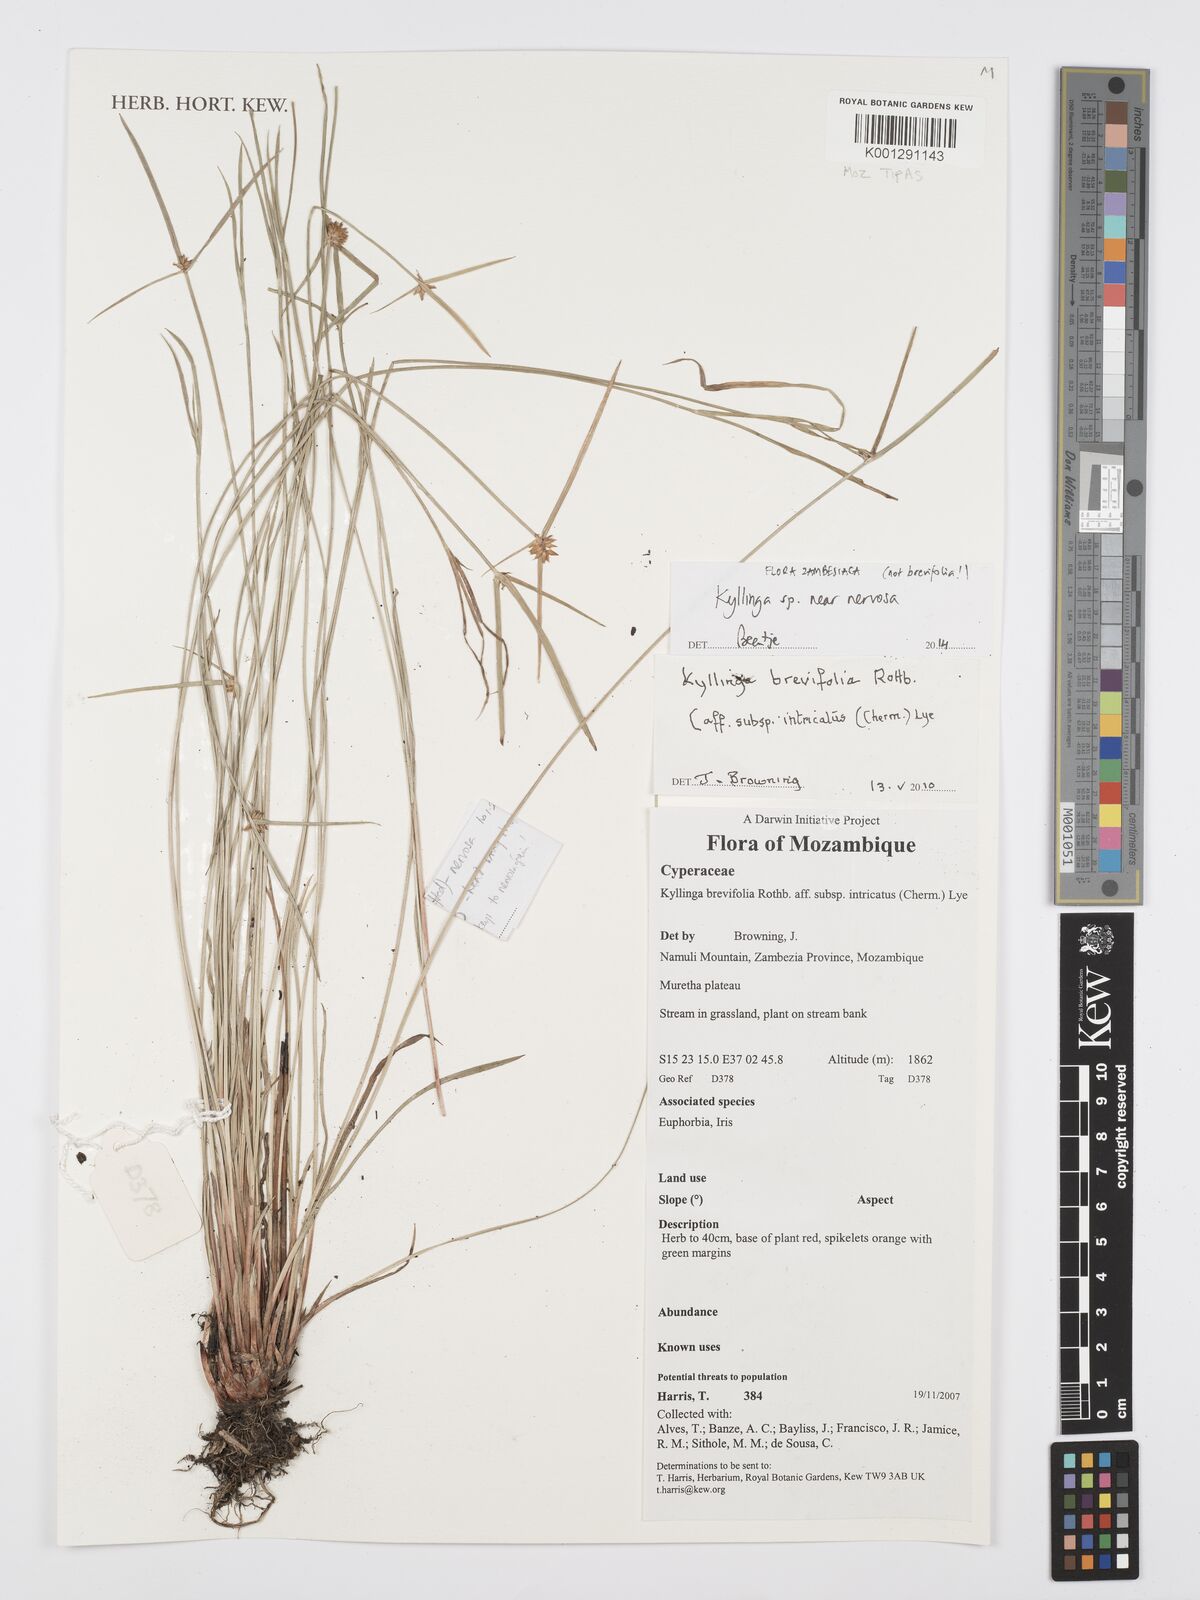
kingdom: Plantae
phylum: Tracheophyta
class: Liliopsida
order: Poales
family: Cyperaceae
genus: Cyperus
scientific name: Cyperus
